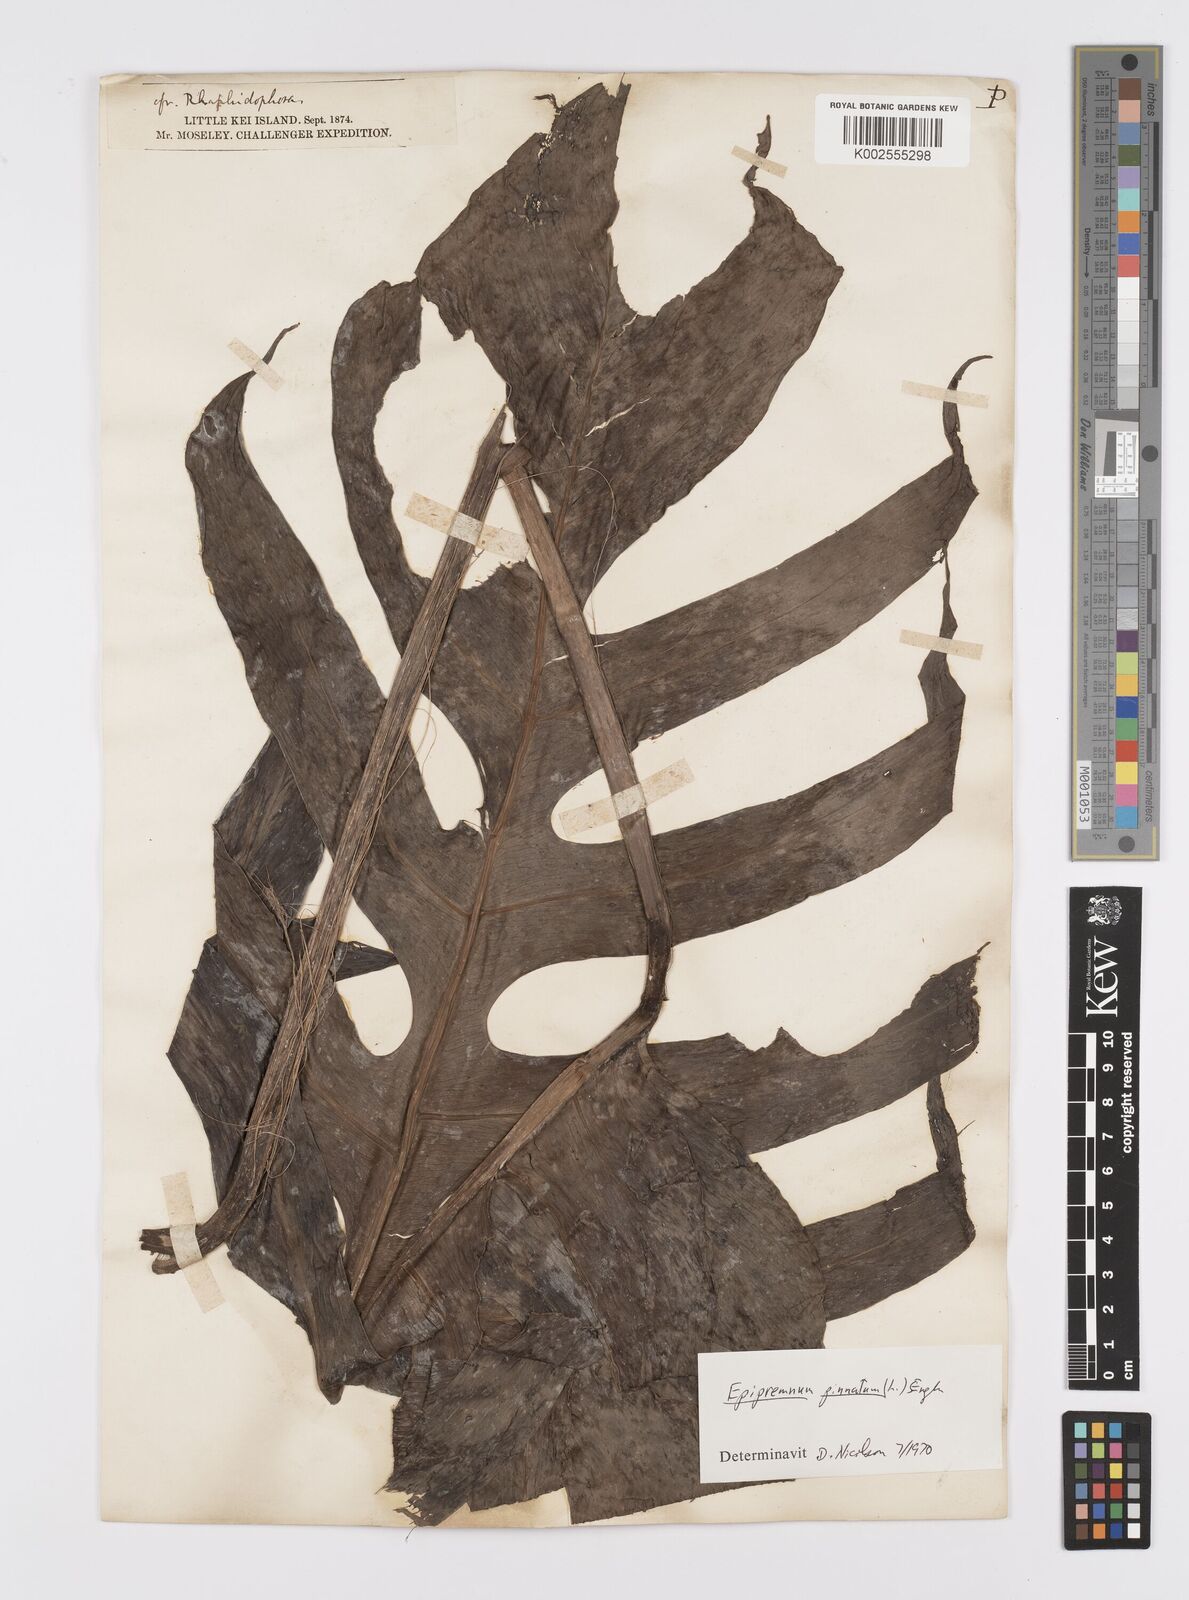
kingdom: Plantae
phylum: Tracheophyta
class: Liliopsida
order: Alismatales
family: Araceae
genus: Epipremnum
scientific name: Epipremnum pinnatum
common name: Centipede tongavine
